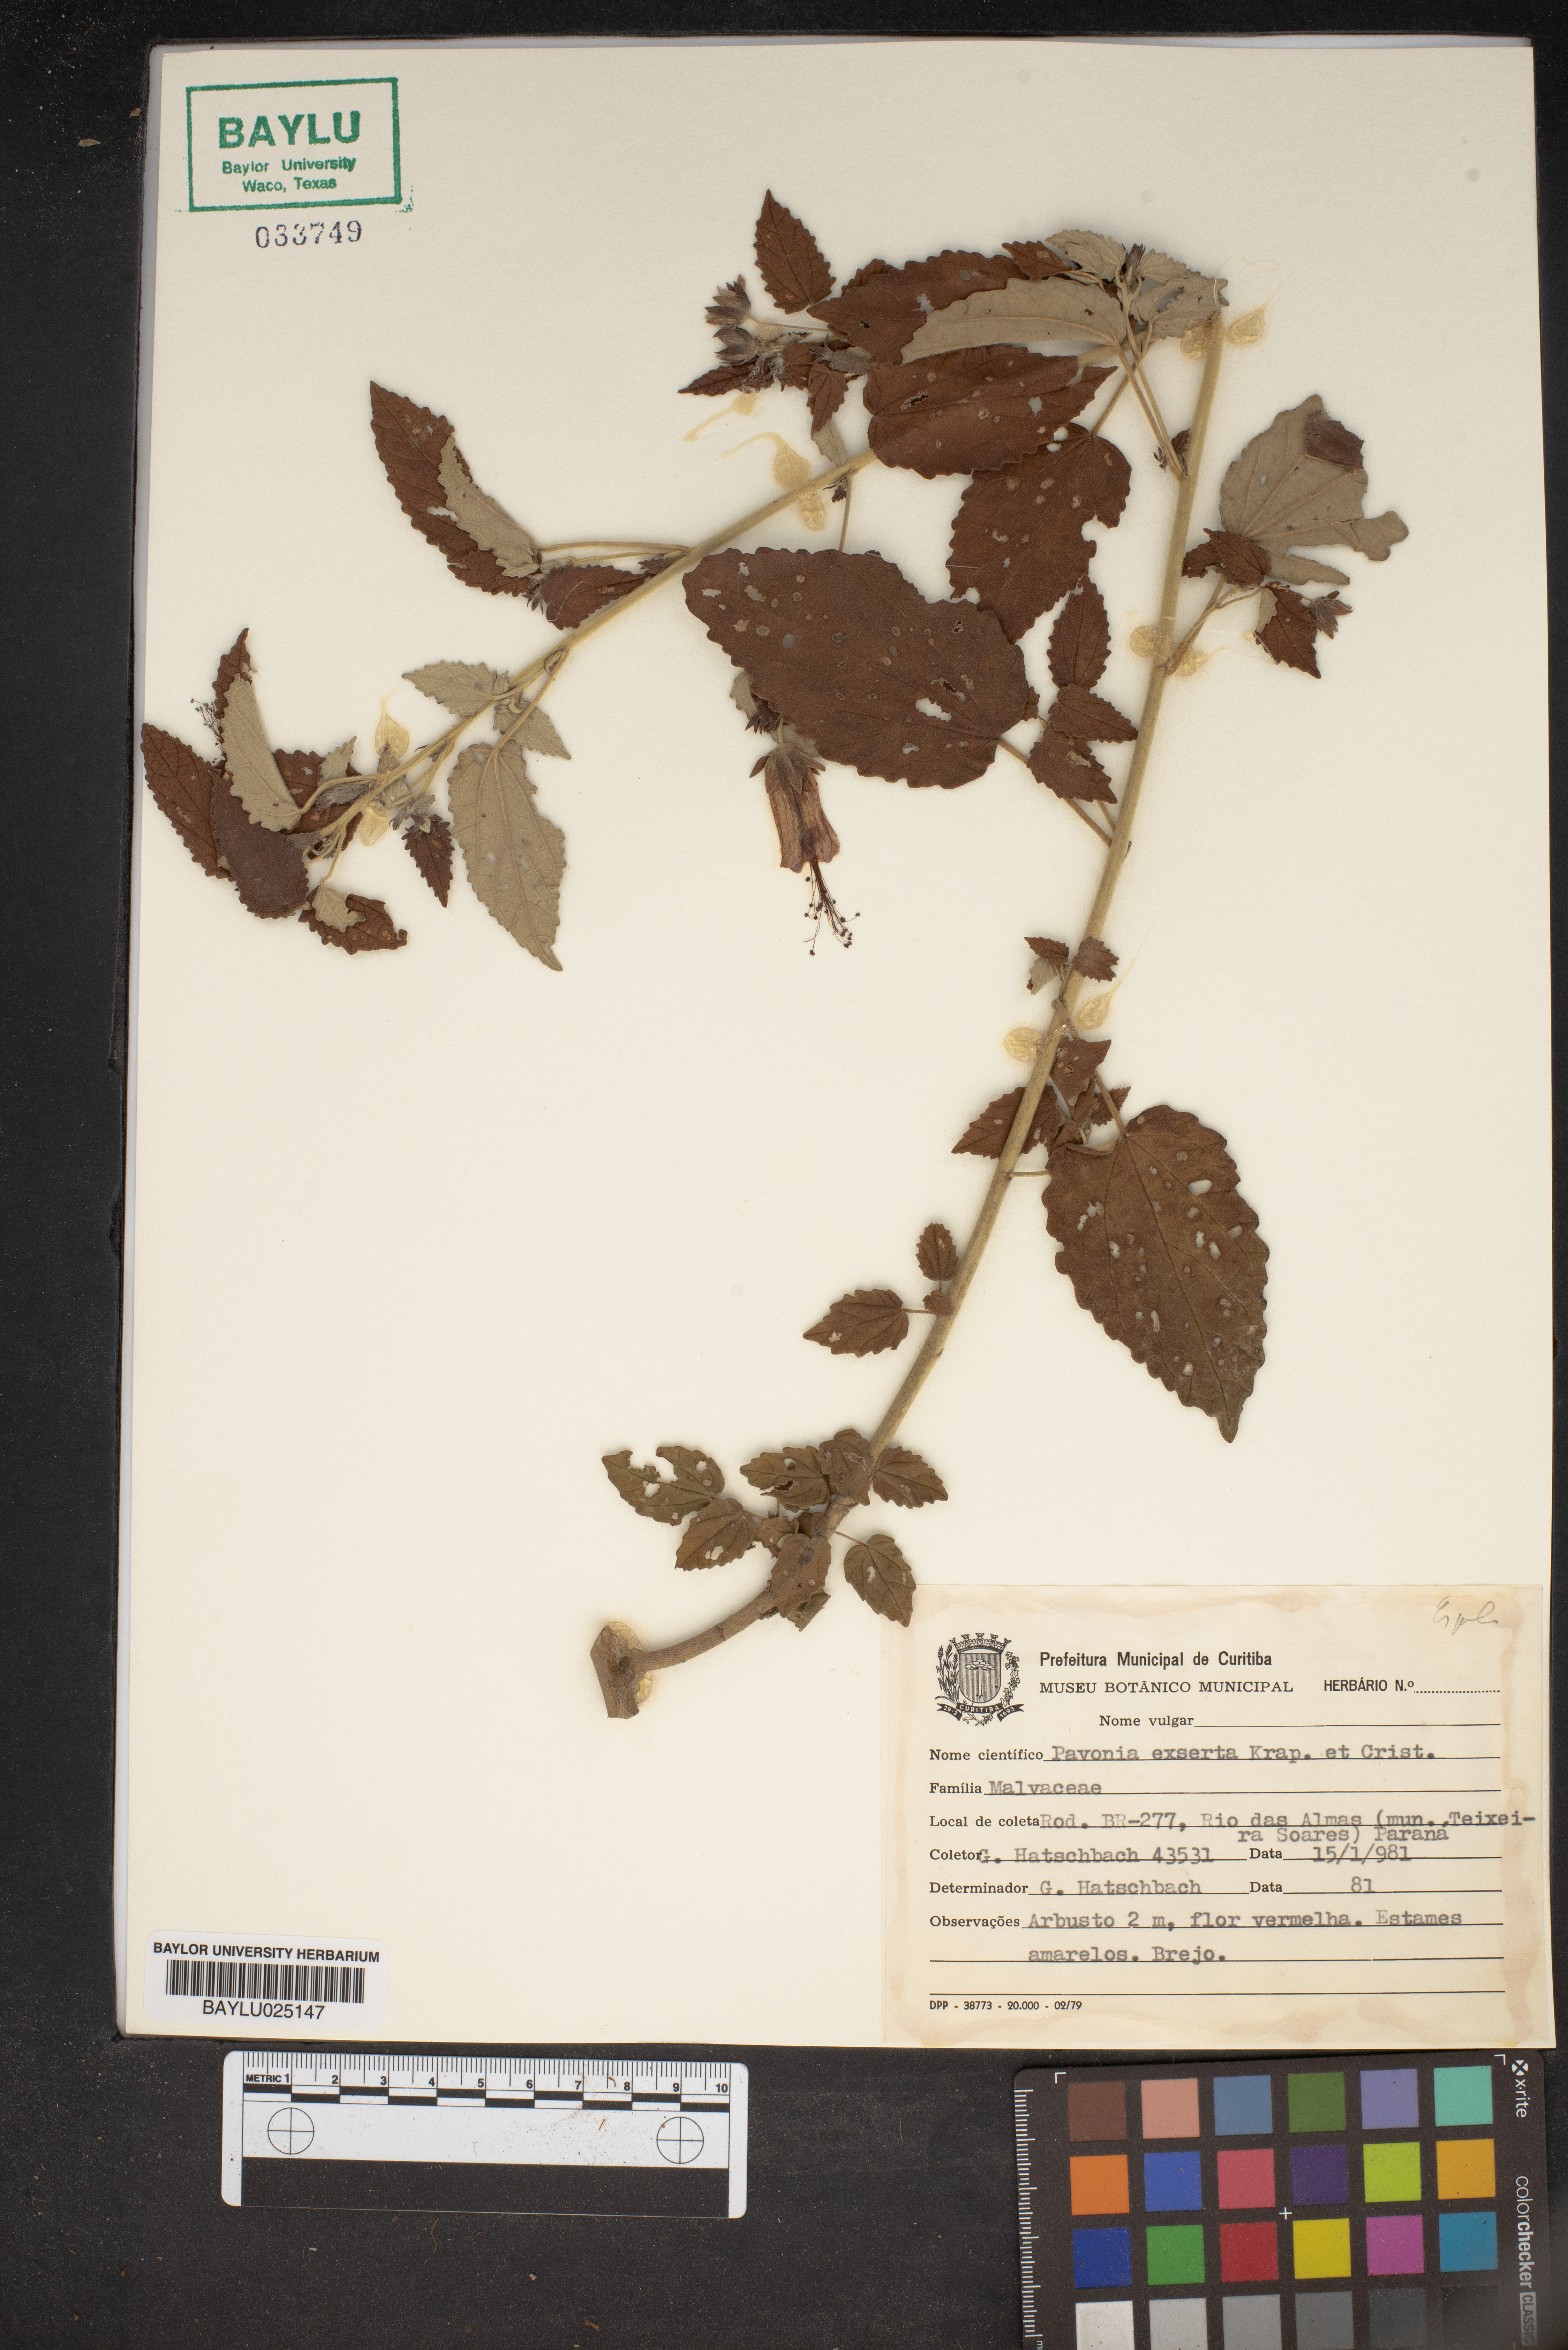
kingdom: Plantae
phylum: Tracheophyta
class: Magnoliopsida
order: Malvales
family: Malvaceae
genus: Pavonia
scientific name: Pavonia commutata
